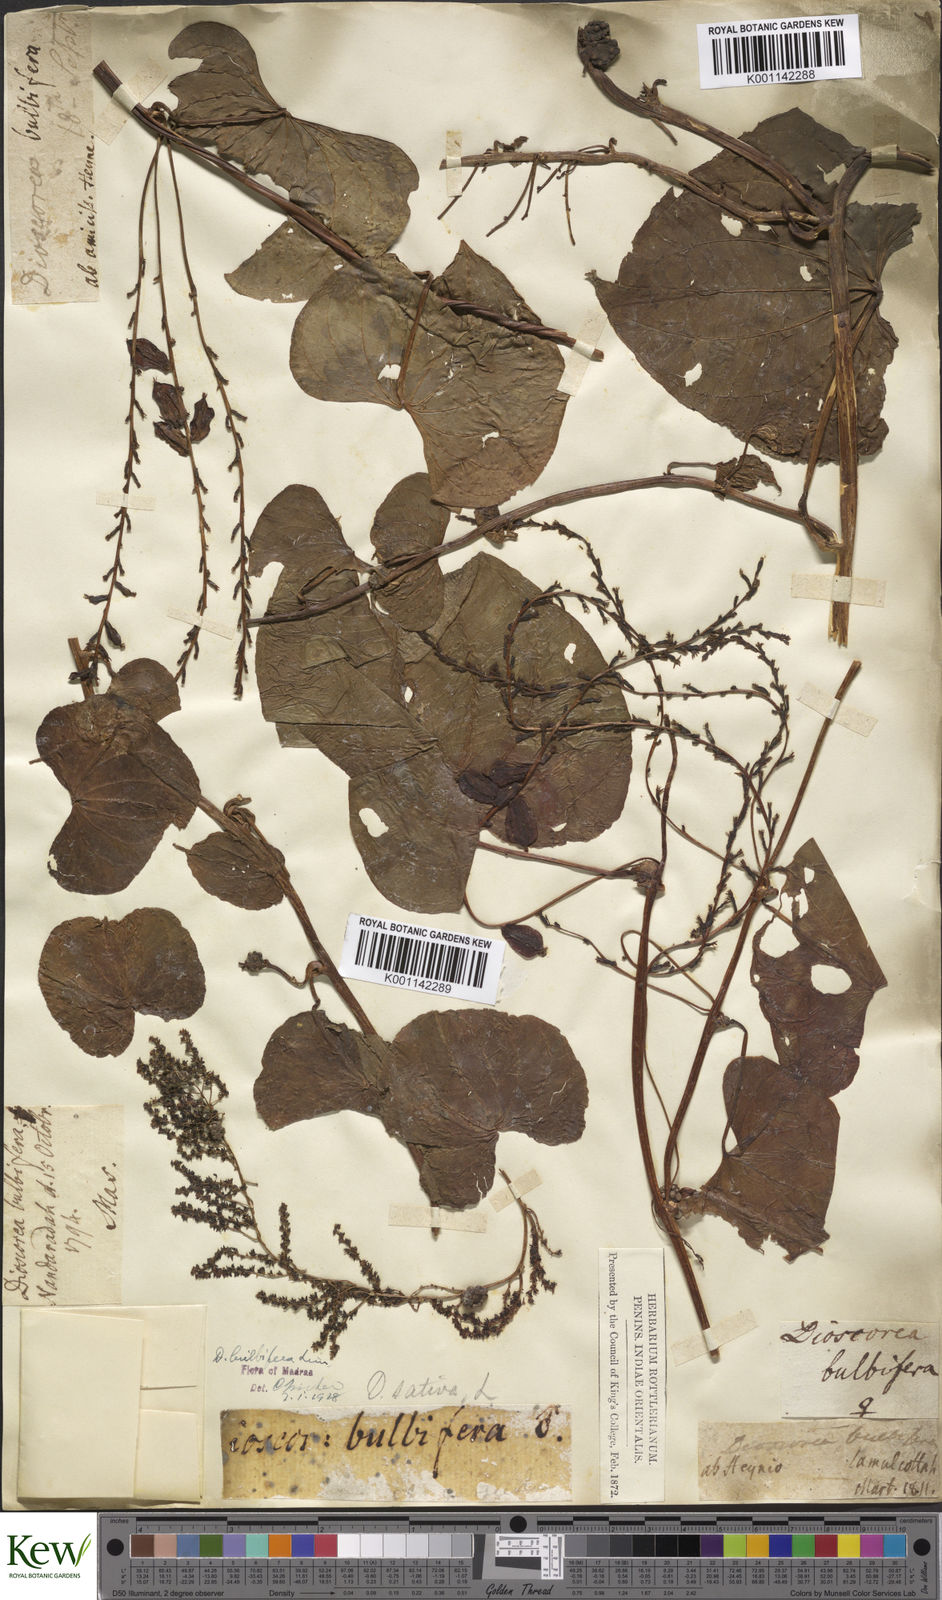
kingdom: Plantae
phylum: Tracheophyta
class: Liliopsida
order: Dioscoreales
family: Dioscoreaceae
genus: Dioscorea
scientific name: Dioscorea bulbifera
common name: Air yam
